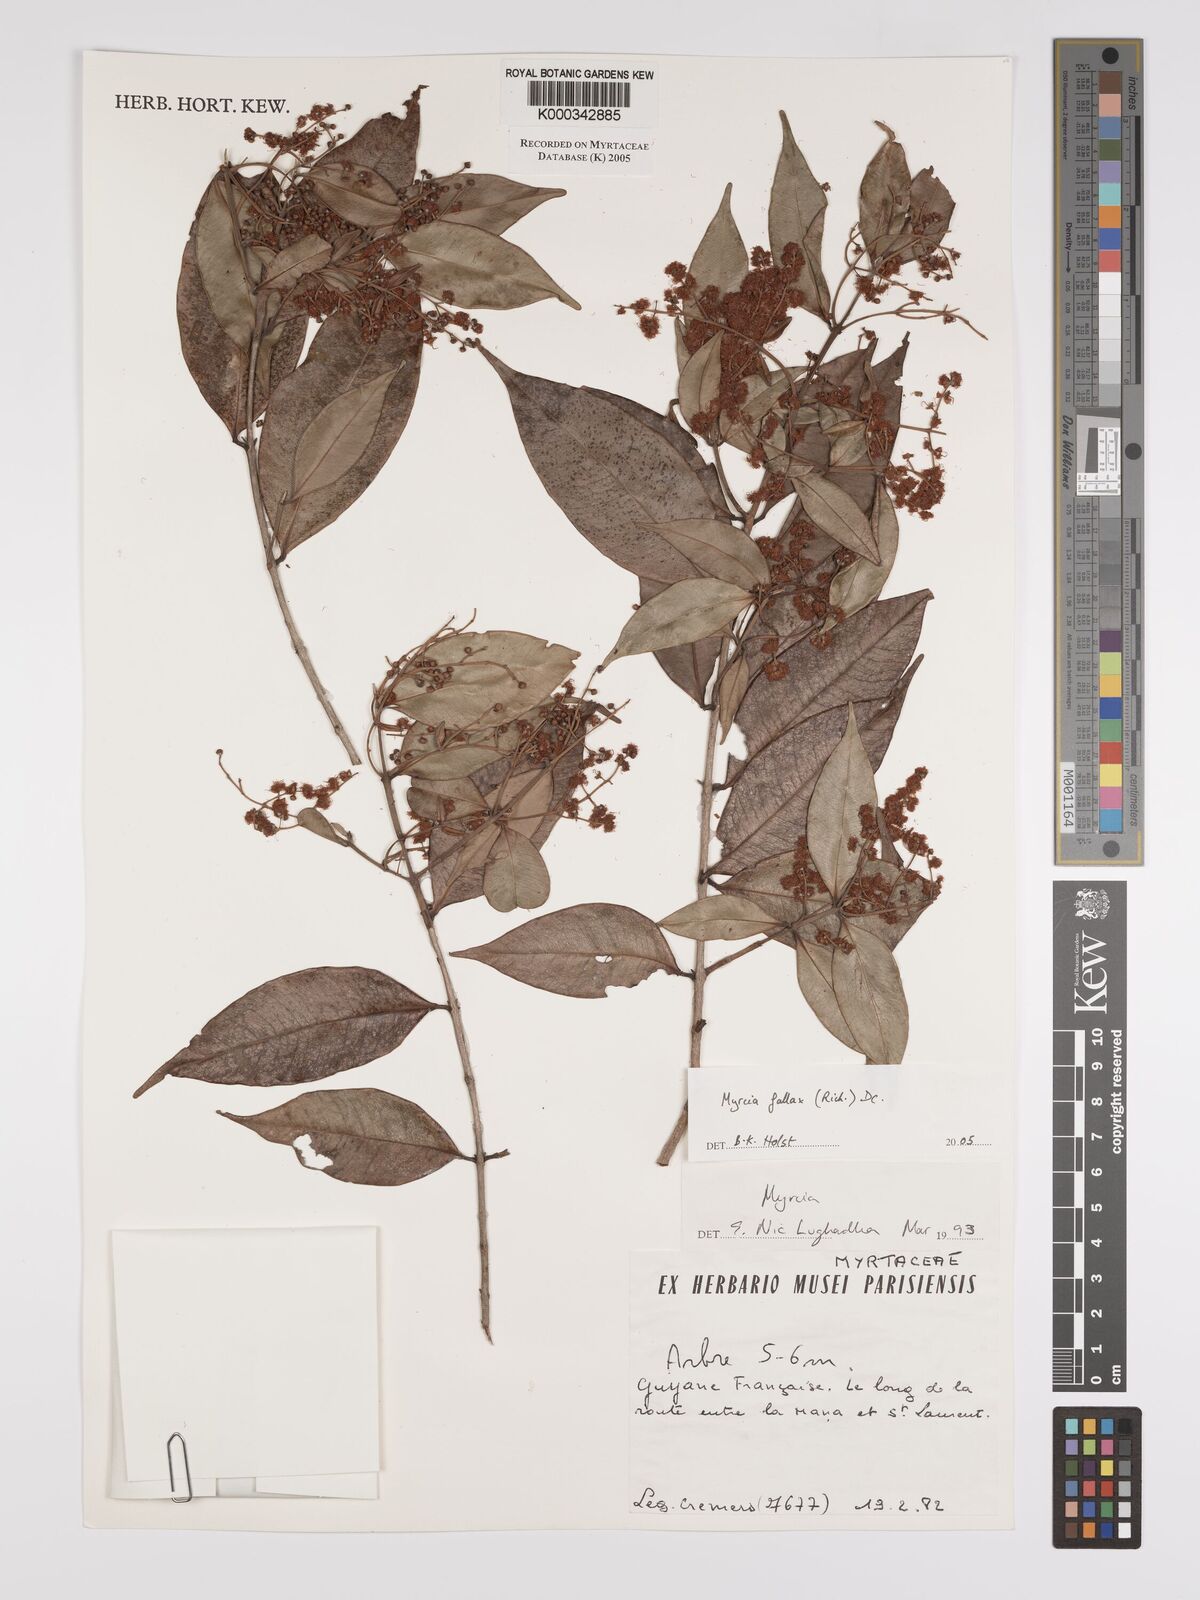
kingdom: Plantae
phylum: Tracheophyta
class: Magnoliopsida
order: Myrtales
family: Myrtaceae
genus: Myrcia
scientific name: Myrcia splendens
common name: Surinam cherry
